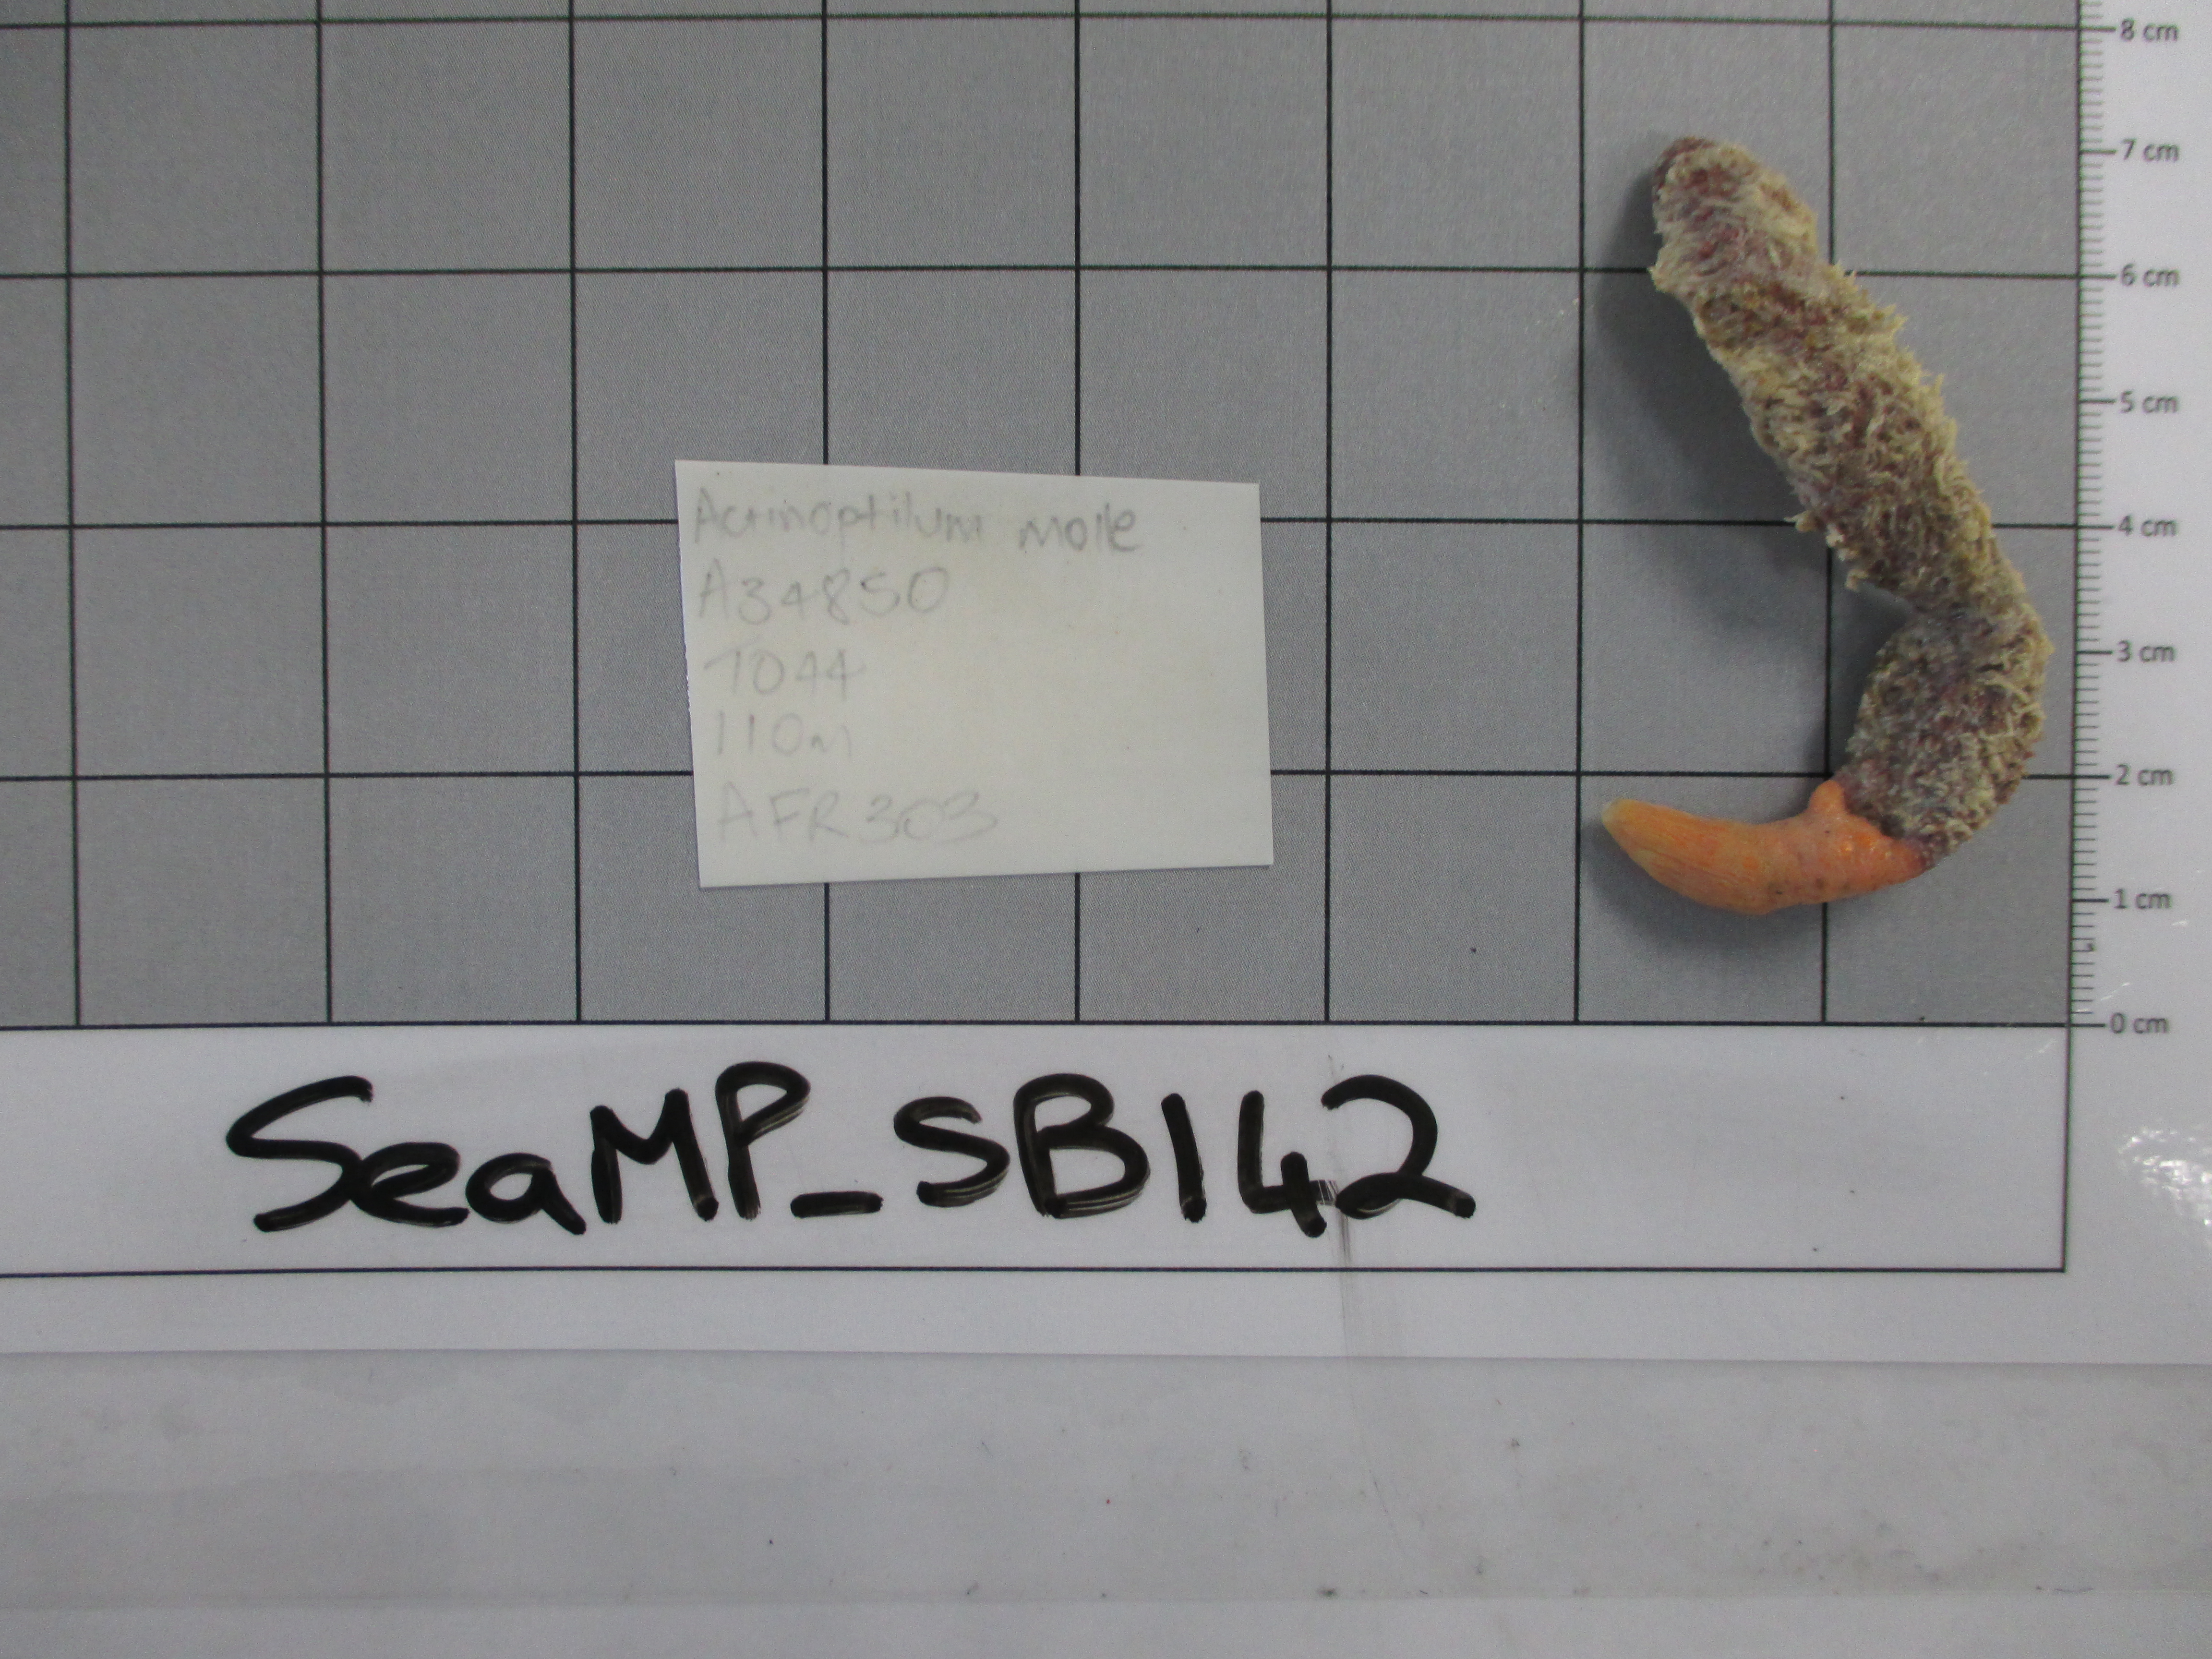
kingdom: Animalia
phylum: Cnidaria
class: Anthozoa
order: Scleralcyonacea
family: Echinoptilidae
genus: Actinoptilum
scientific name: Actinoptilum molle
